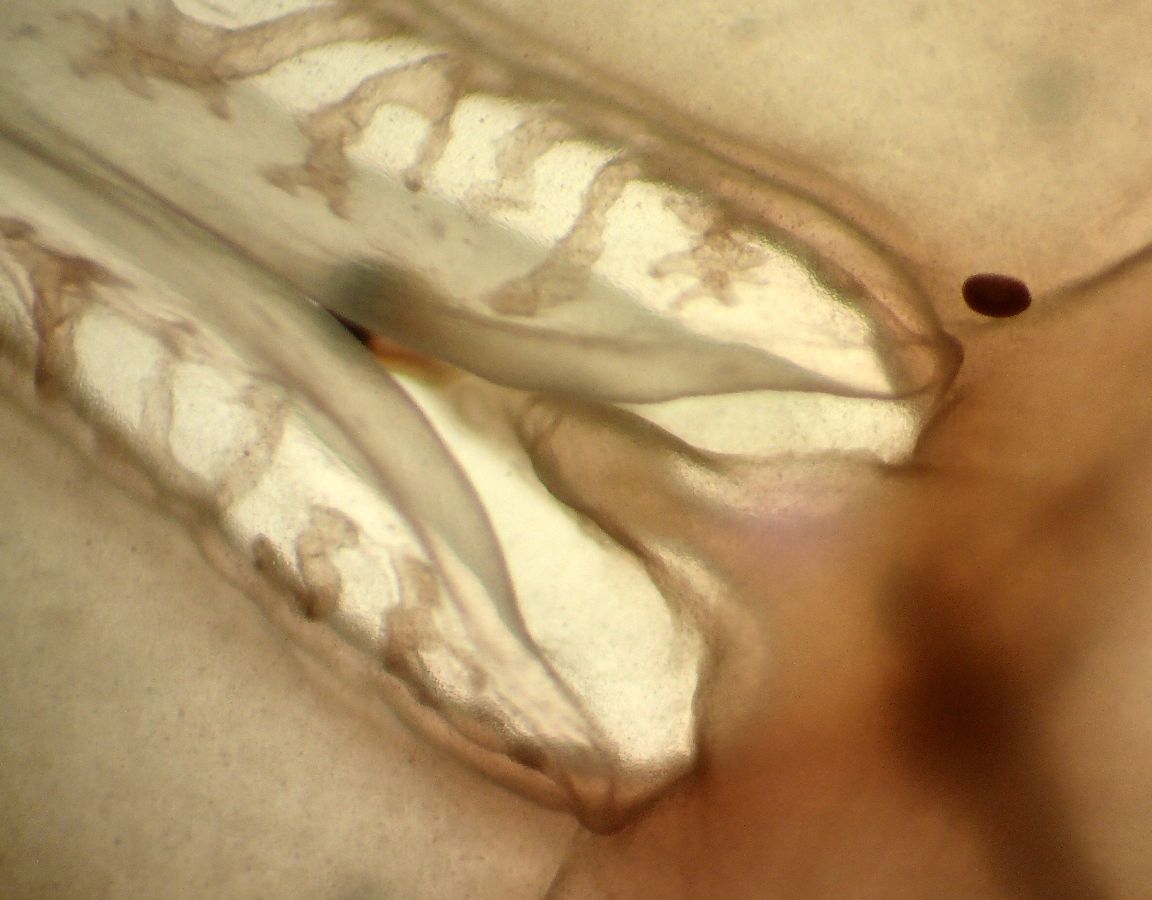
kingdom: Animalia
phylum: Cnidaria
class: Scyphozoa
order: Semaeostomeae
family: Cyaneidae
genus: Cyanea
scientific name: Cyanea capillata
